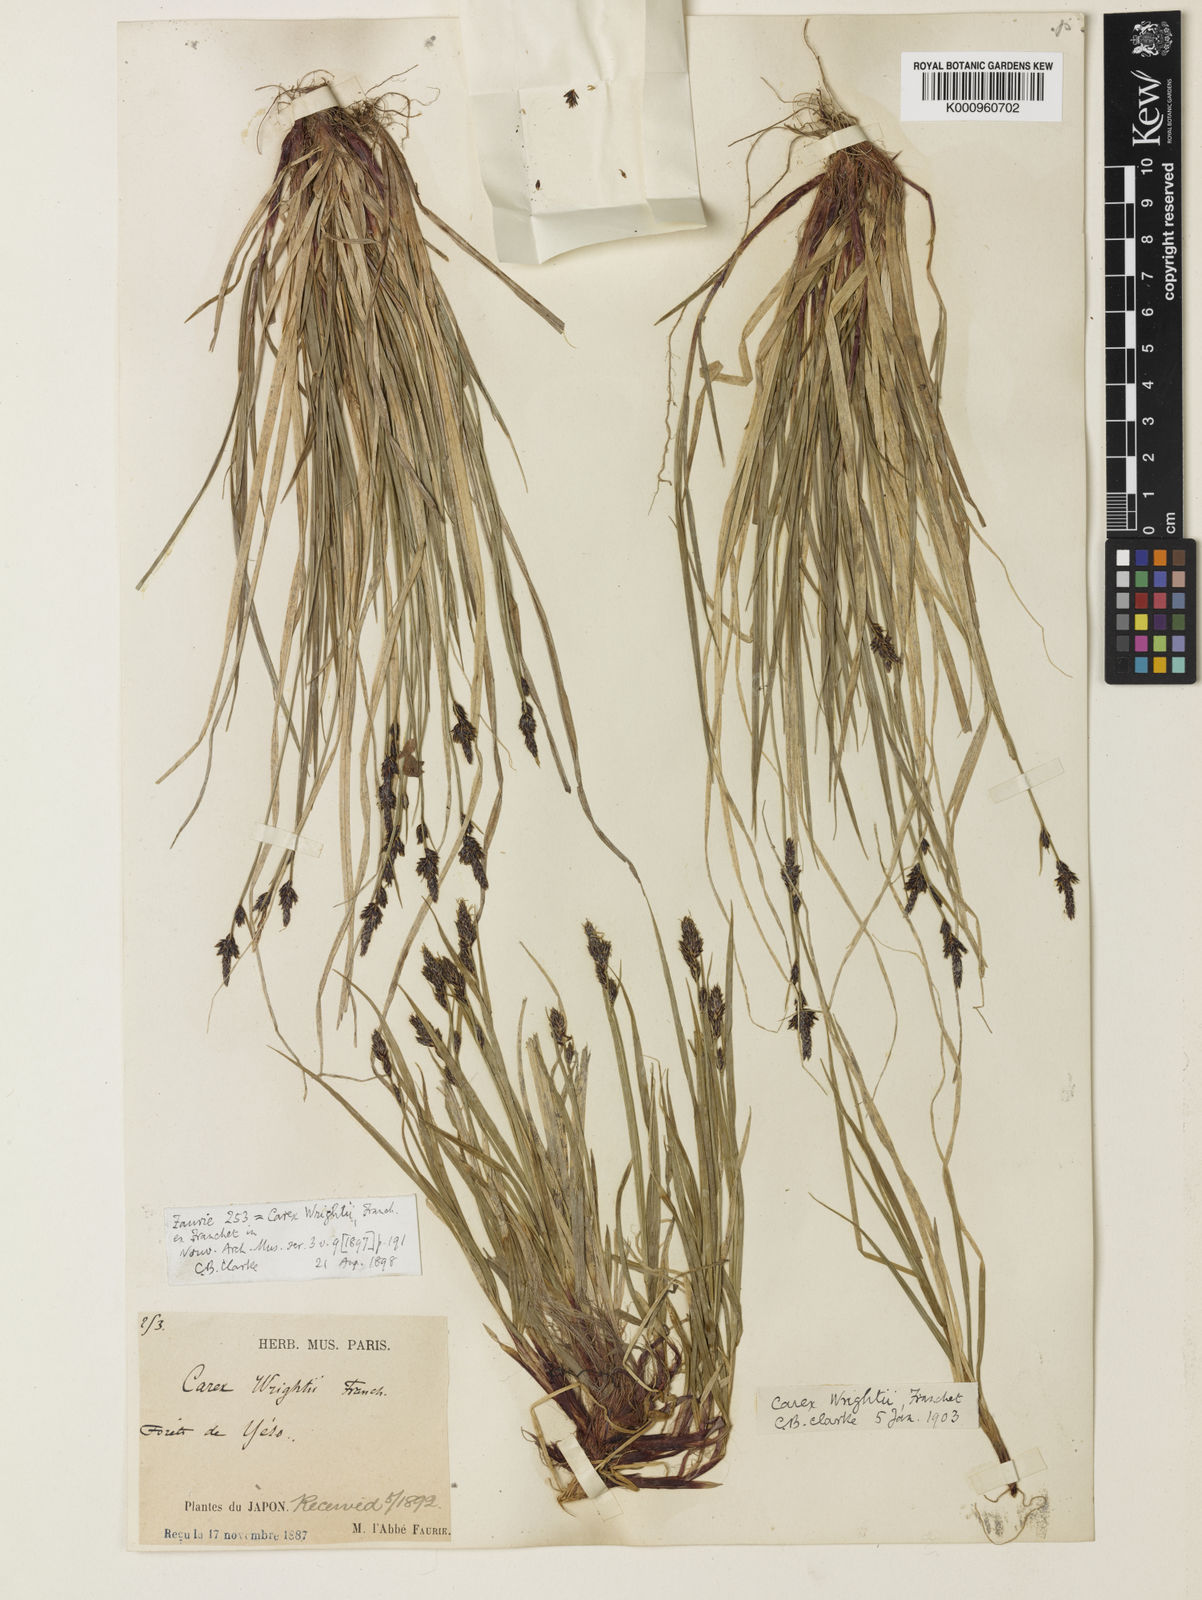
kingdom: Plantae
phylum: Tracheophyta
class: Liliopsida
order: Poales
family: Cyperaceae
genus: Carex
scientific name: Carex oxyandra
